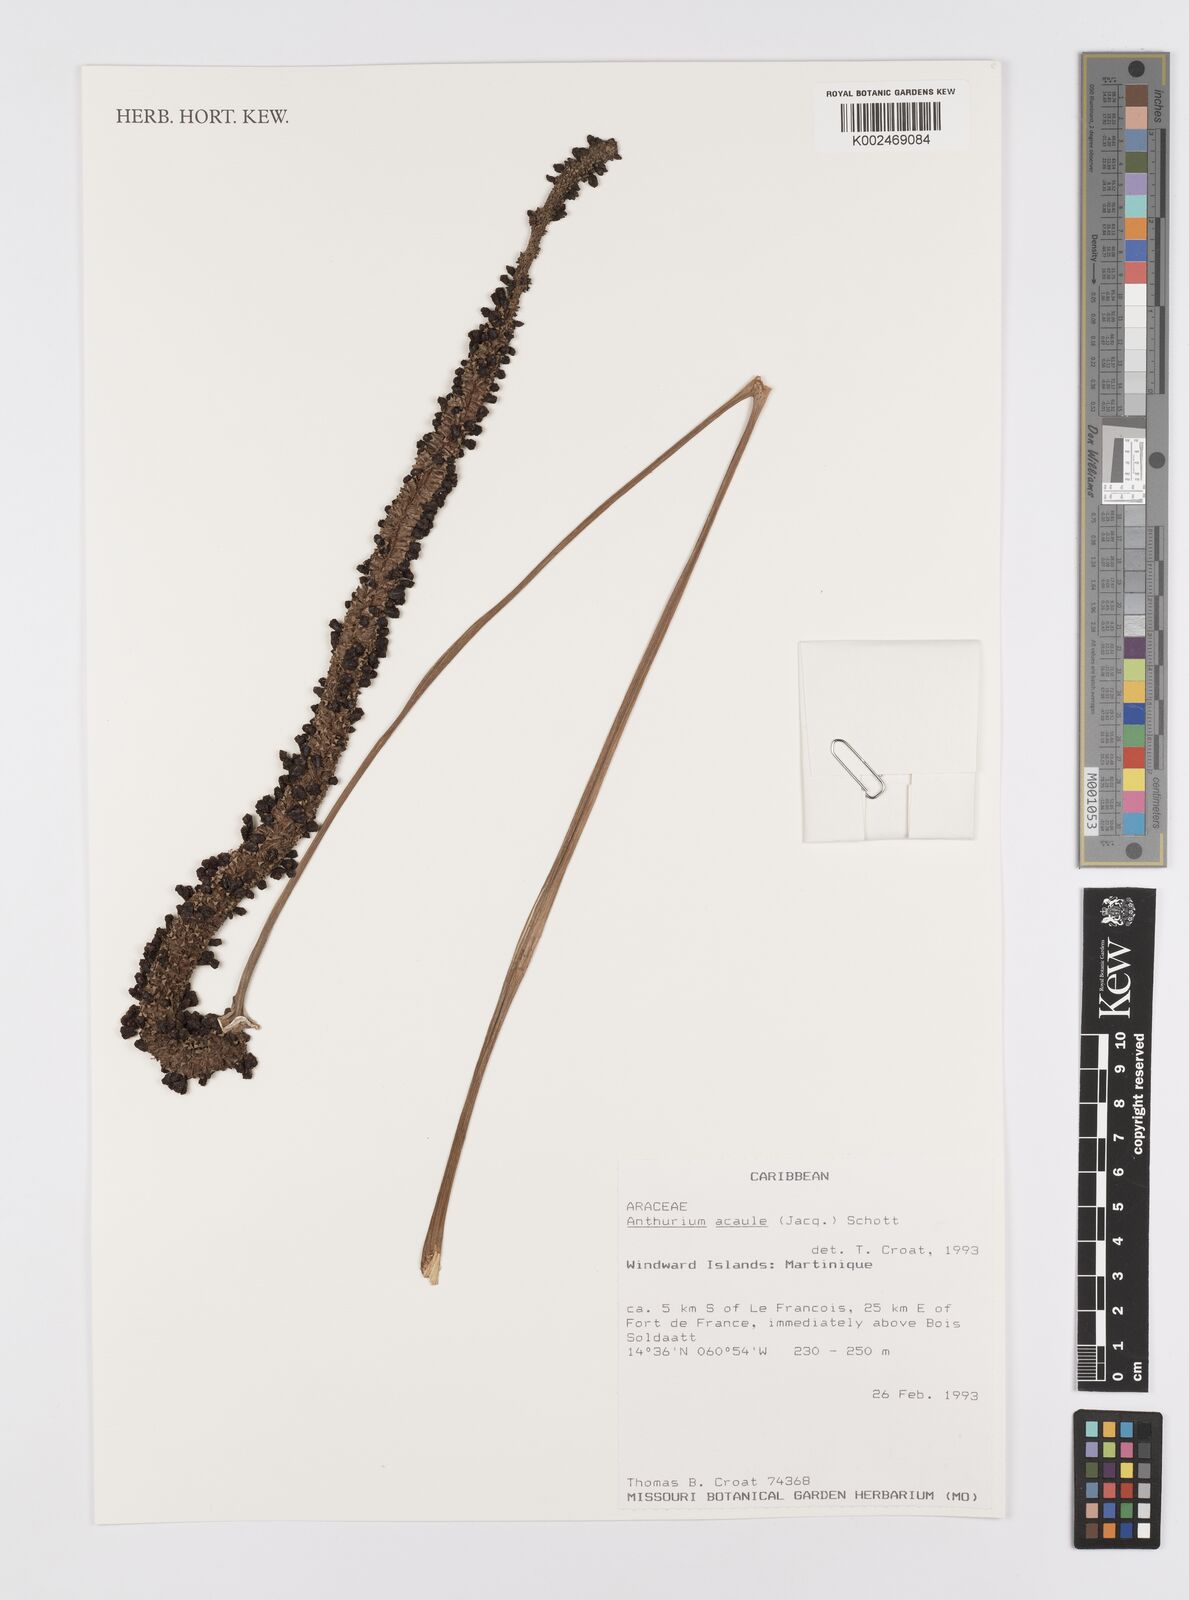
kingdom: Plantae
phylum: Tracheophyta
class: Liliopsida
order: Alismatales
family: Araceae
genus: Anthurium
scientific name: Anthurium acaule
